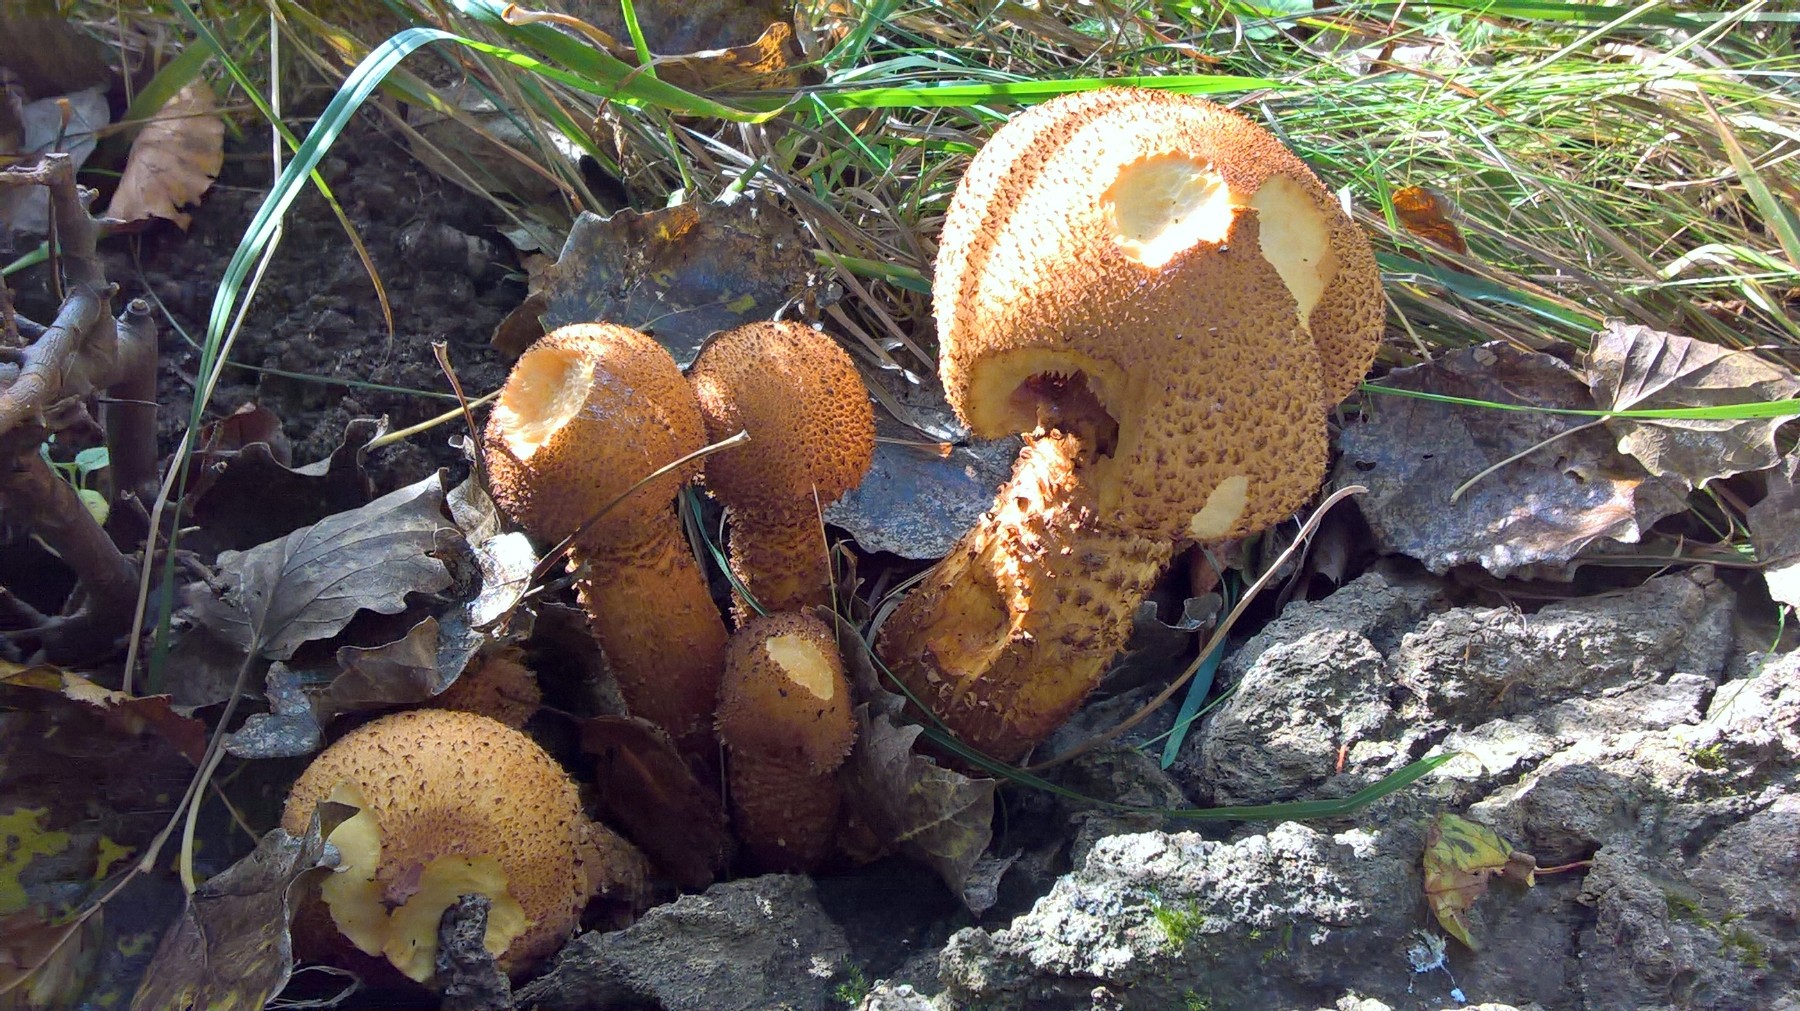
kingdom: Fungi
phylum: Basidiomycota
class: Agaricomycetes
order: Agaricales
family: Strophariaceae
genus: Pholiota
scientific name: Pholiota squarrosa
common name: krumskællet skælhat
